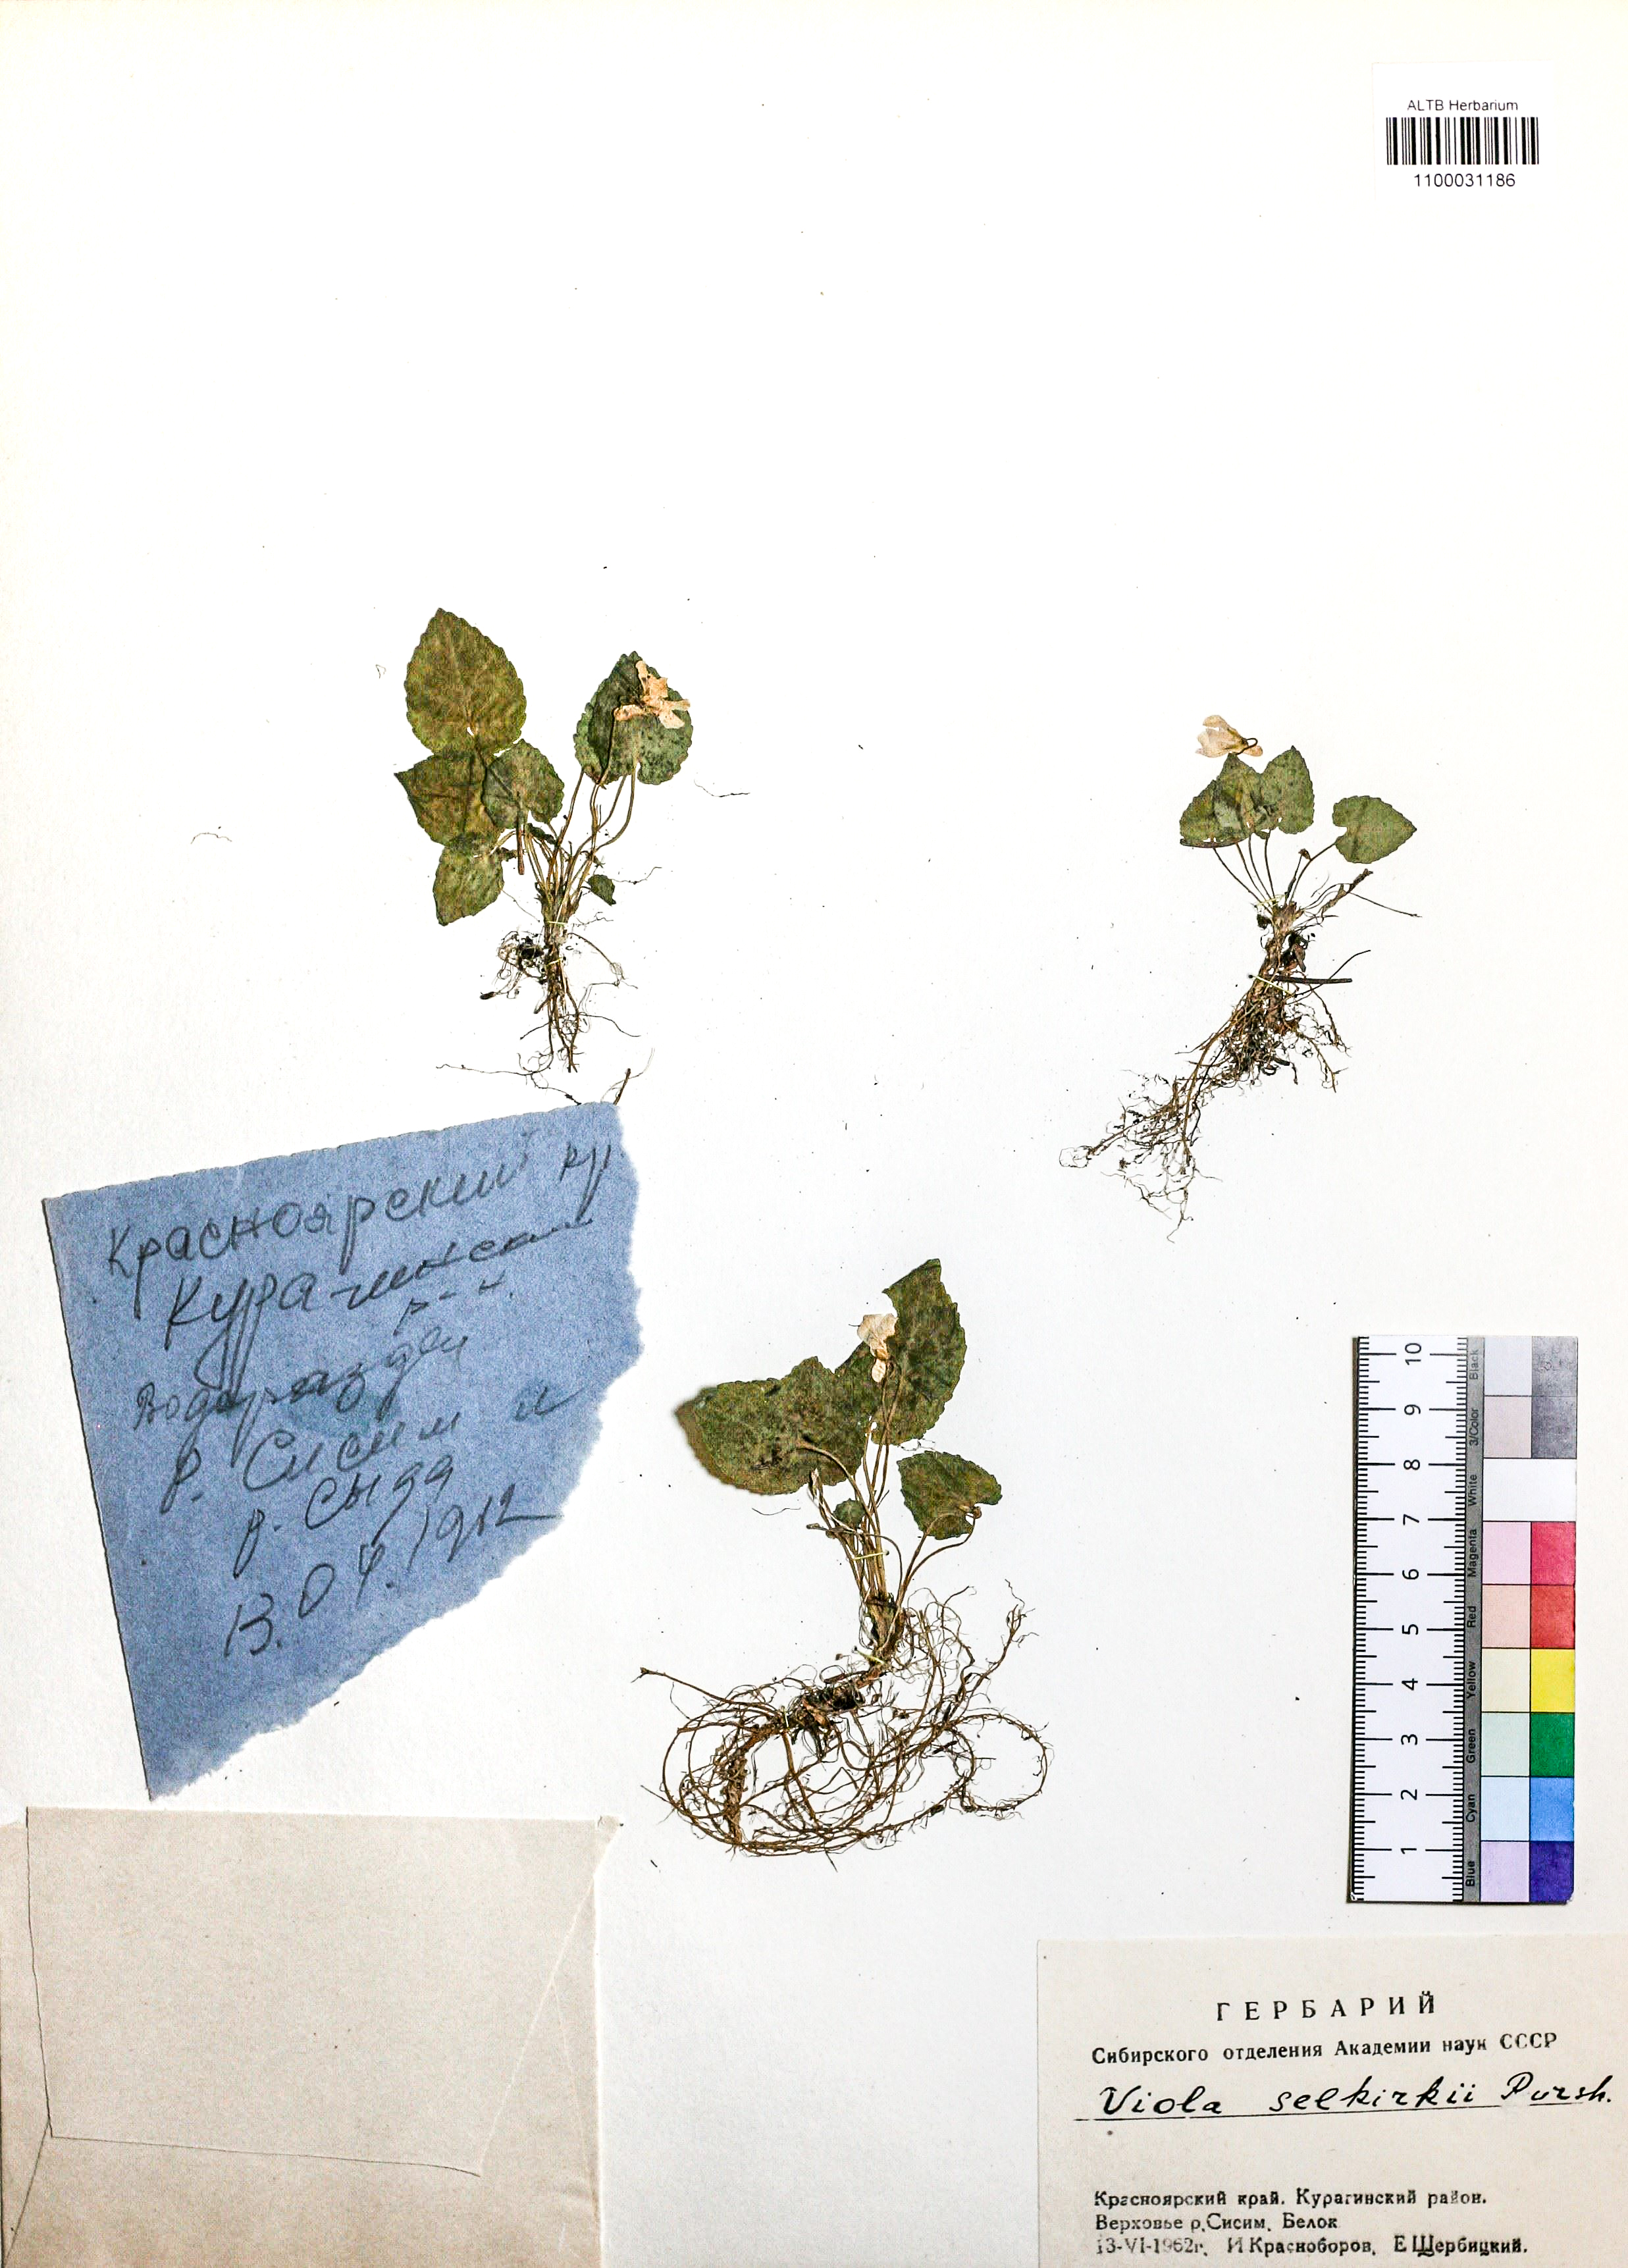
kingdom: Plantae
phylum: Tracheophyta
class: Magnoliopsida
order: Malpighiales
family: Violaceae
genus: Viola
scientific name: Viola selkirkii
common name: Selkirk's violet
